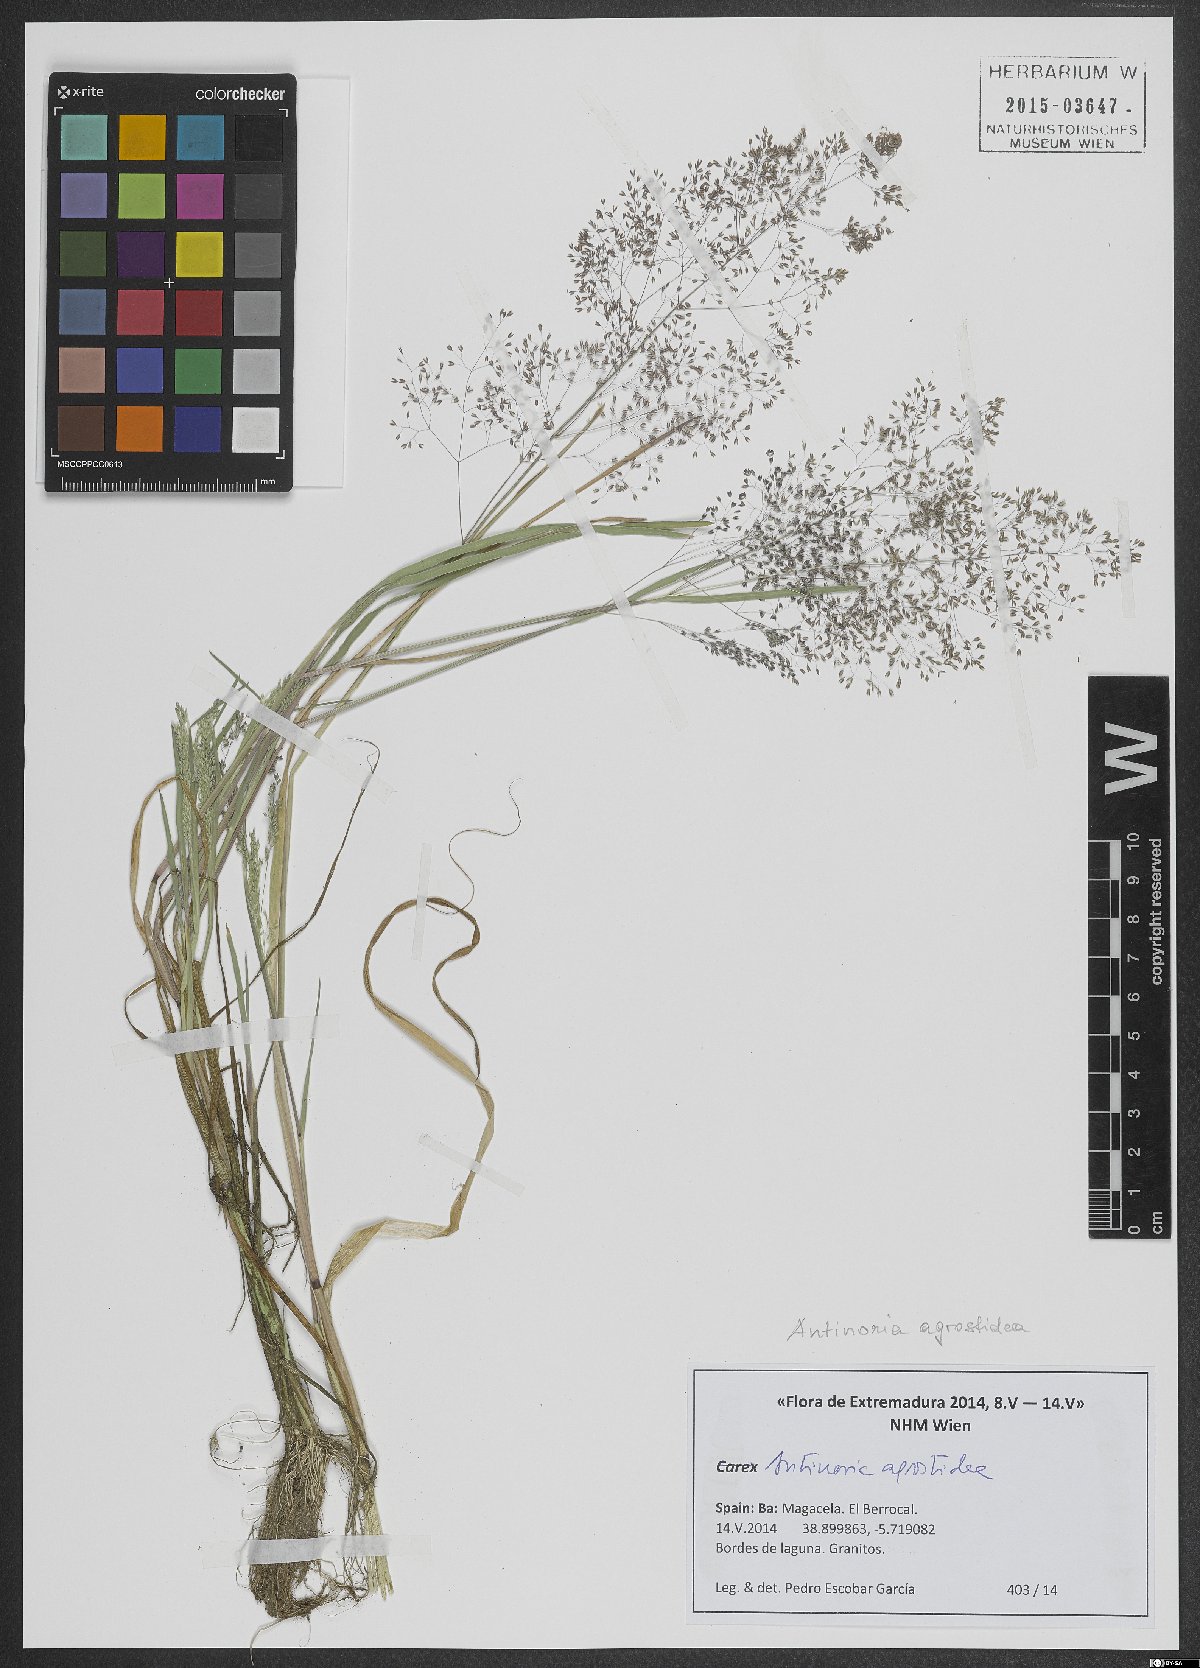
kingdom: Plantae
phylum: Tracheophyta
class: Liliopsida
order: Poales
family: Poaceae
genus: Antinoria
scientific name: Antinoria agrostidea
